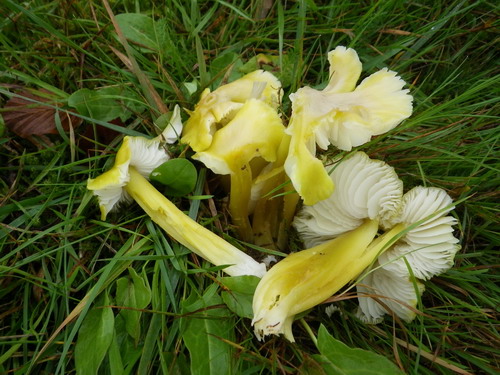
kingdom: Fungi
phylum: Basidiomycota
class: Agaricomycetes
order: Agaricales
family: Hygrophoraceae
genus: Hygrocybe
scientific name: Hygrocybe citrinovirens
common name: grøngul vokshat
